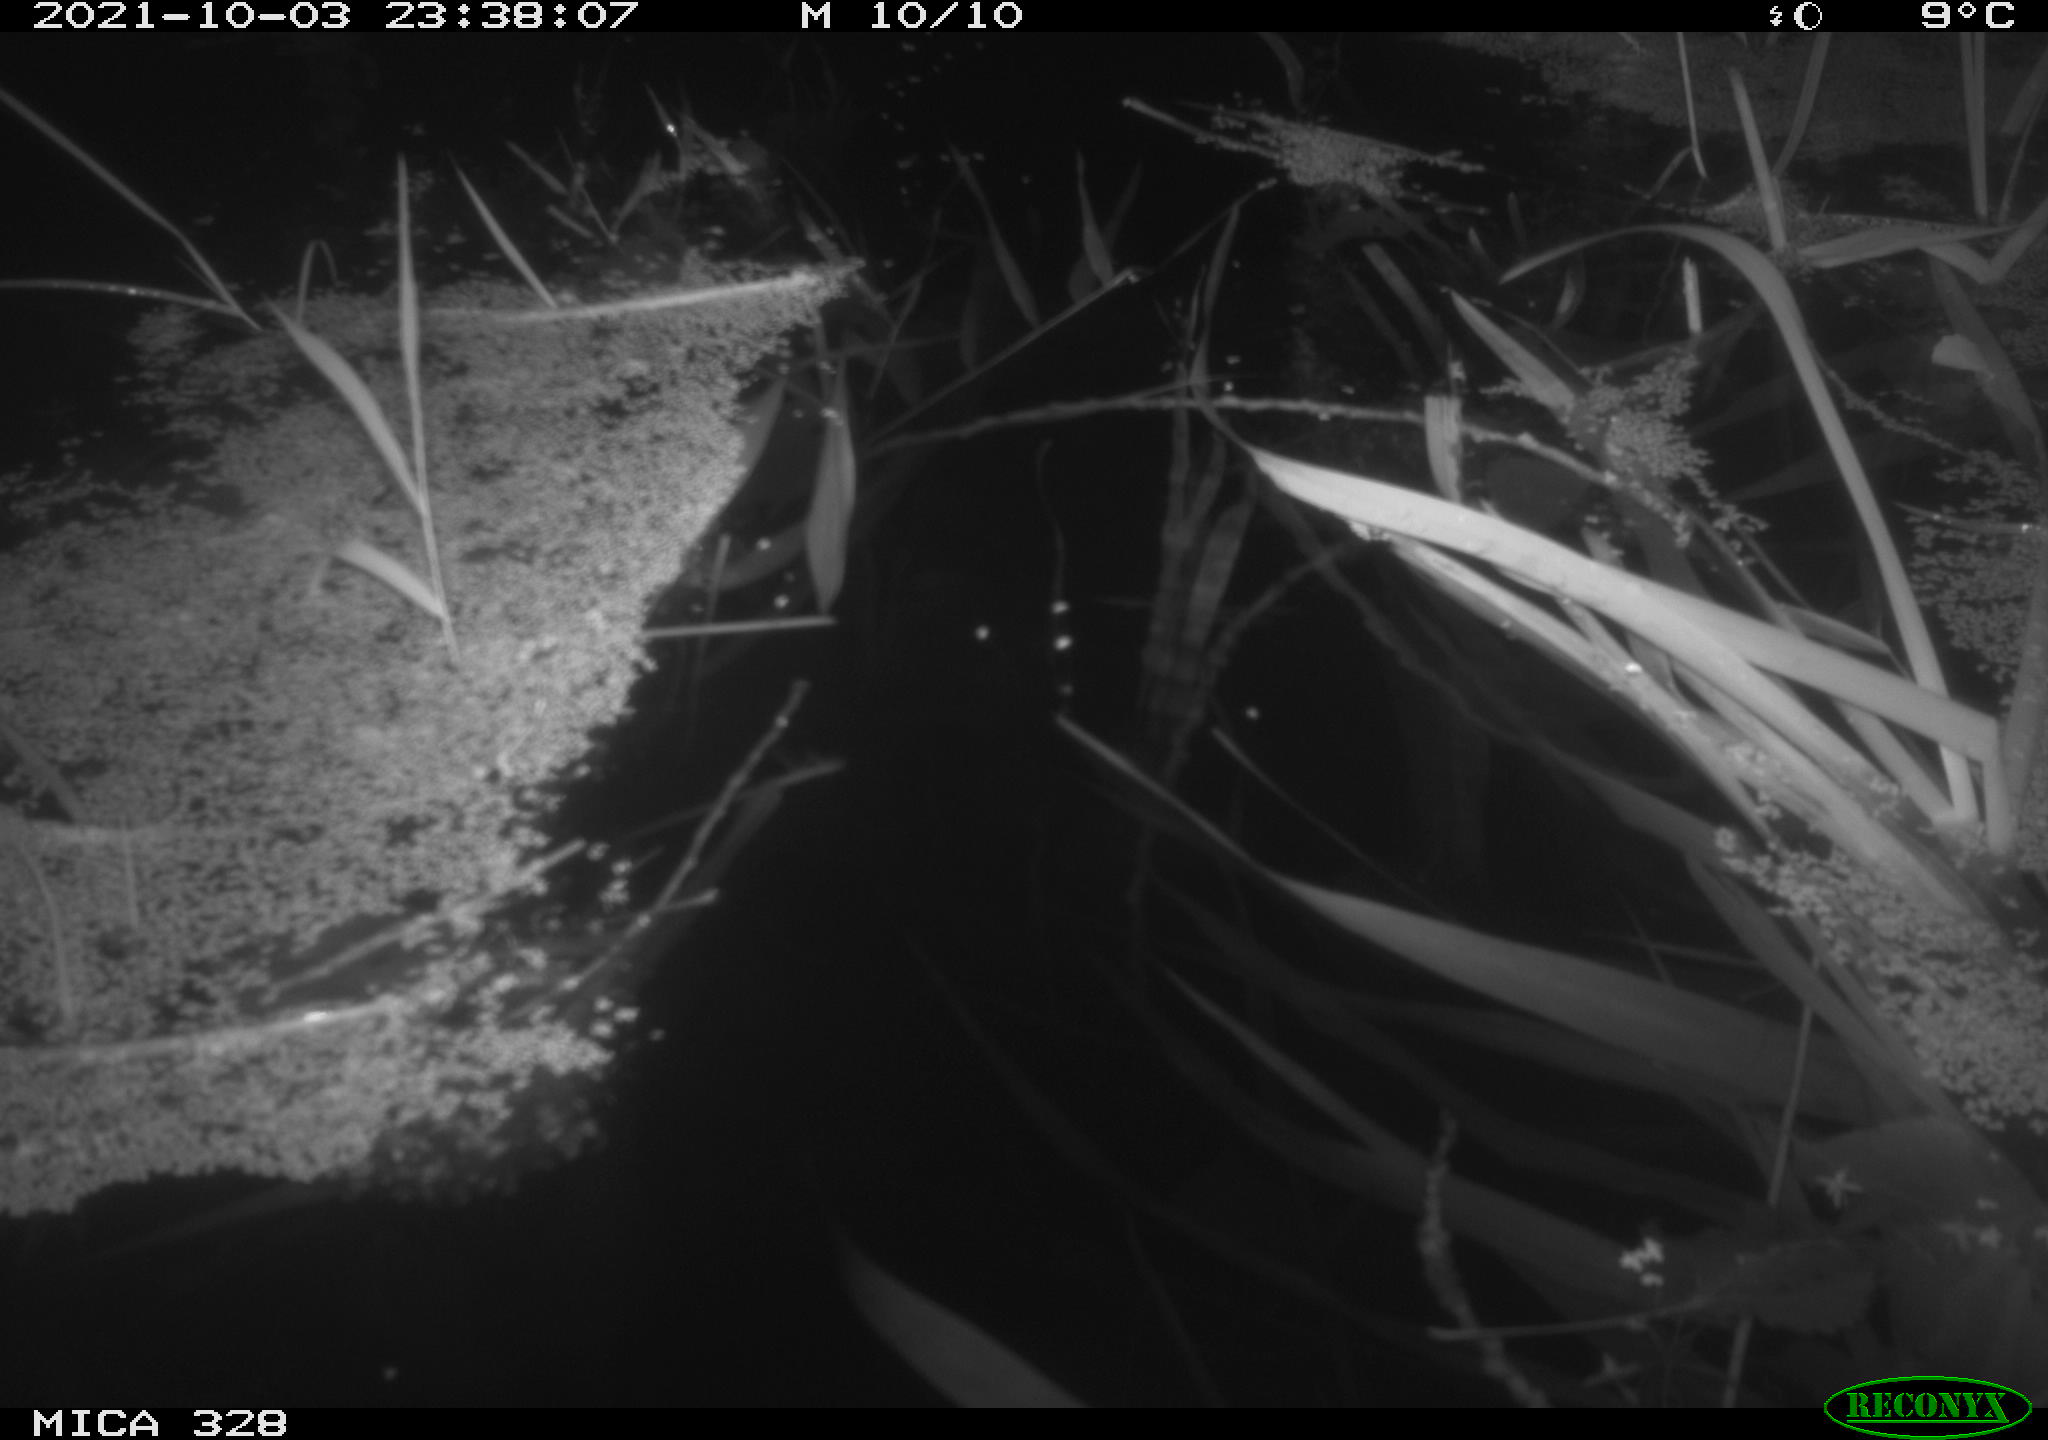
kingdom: Animalia
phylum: Chordata
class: Mammalia
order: Rodentia
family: Cricetidae
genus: Ondatra
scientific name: Ondatra zibethicus
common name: Muskrat
